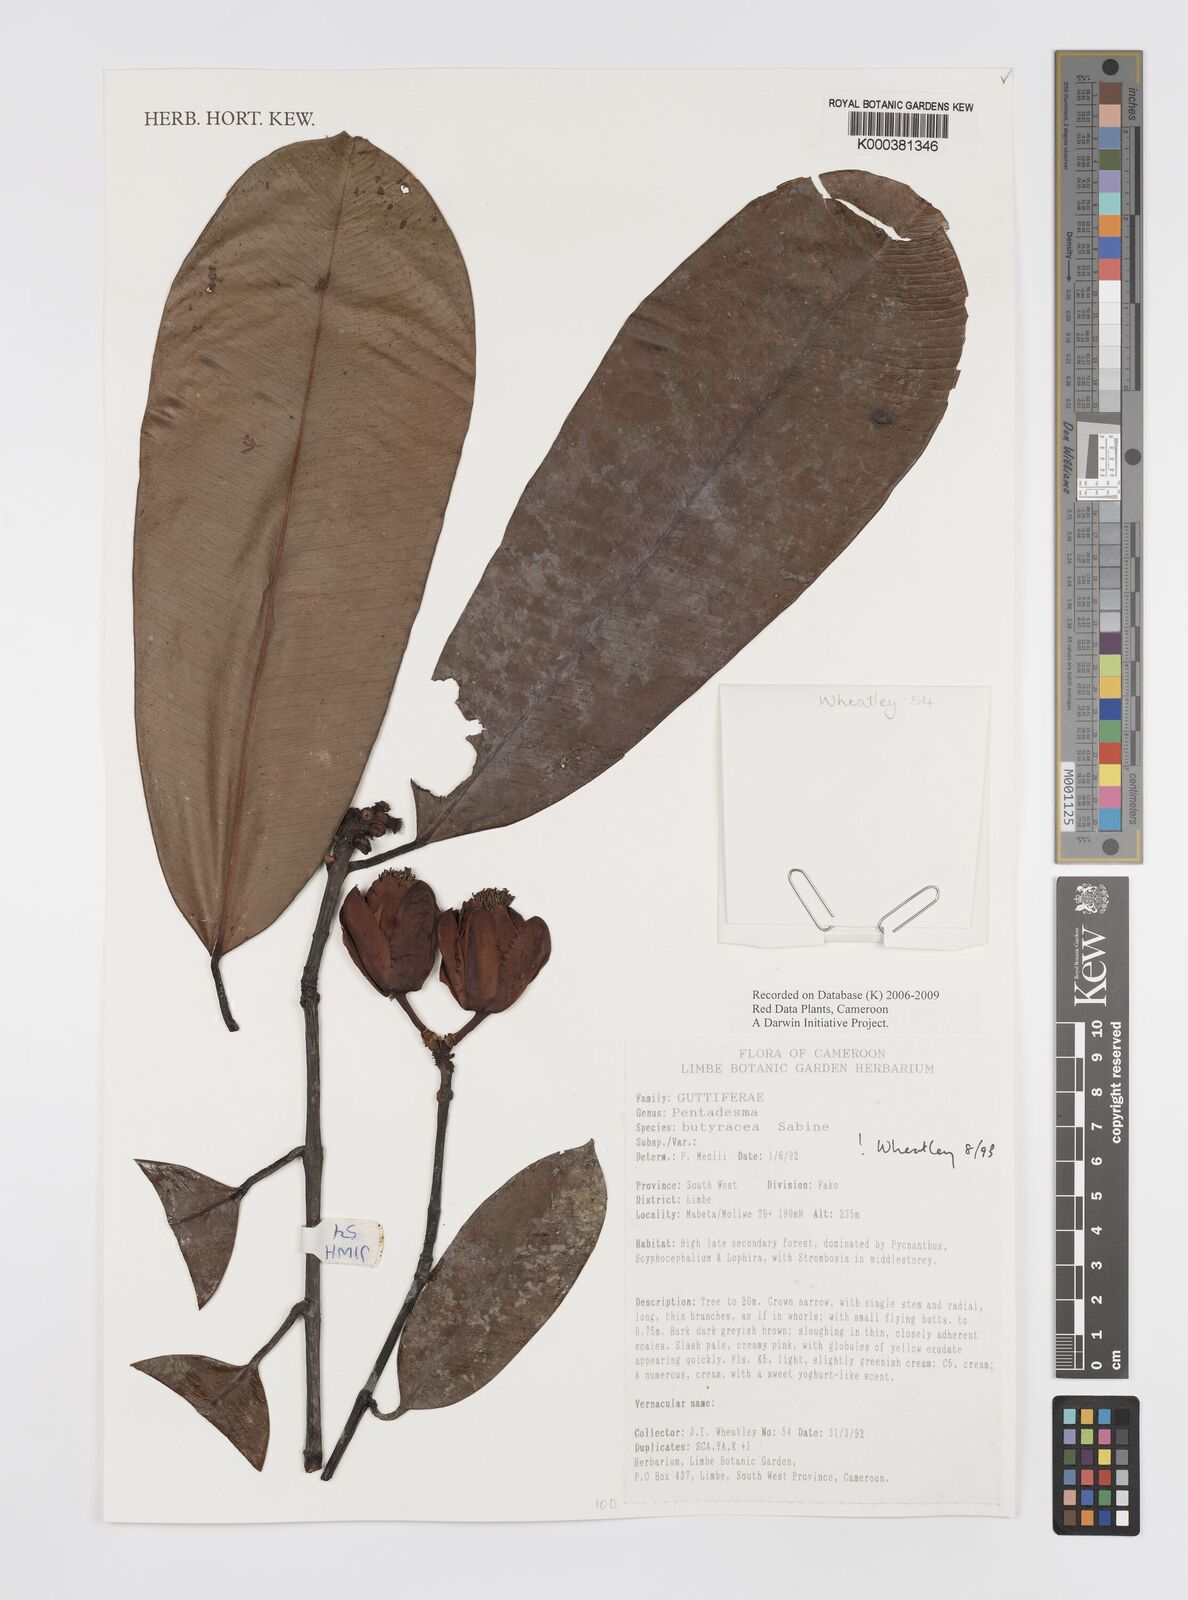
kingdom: Plantae
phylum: Tracheophyta
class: Magnoliopsida
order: Malpighiales
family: Clusiaceae
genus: Pentadesma
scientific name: Pentadesma butyracea
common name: Buttertree
